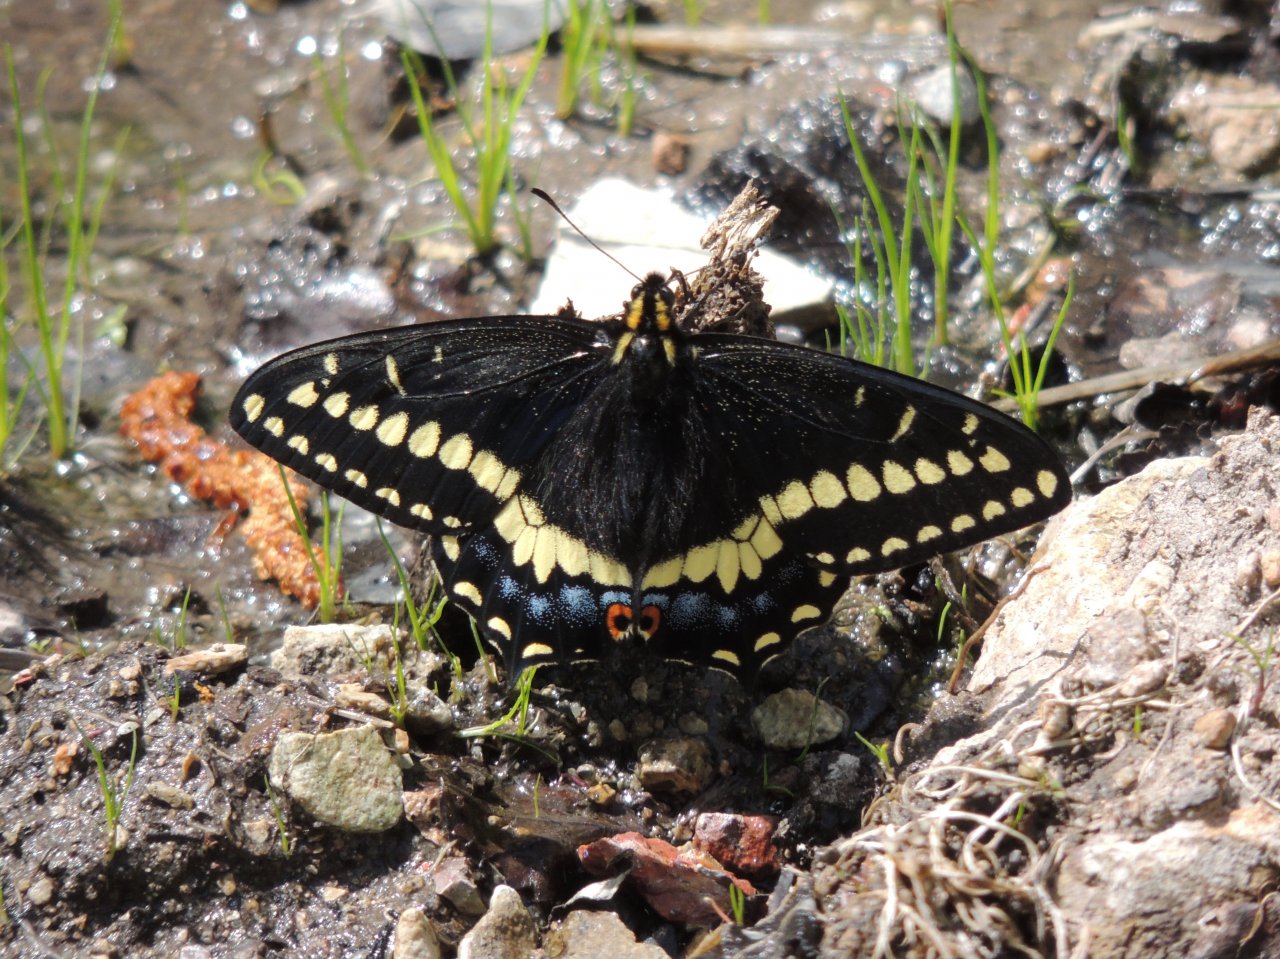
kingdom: Animalia
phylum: Arthropoda
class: Insecta
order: Lepidoptera
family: Papilionidae
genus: Papilio
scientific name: Papilio indra
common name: Indra Swallowtail
